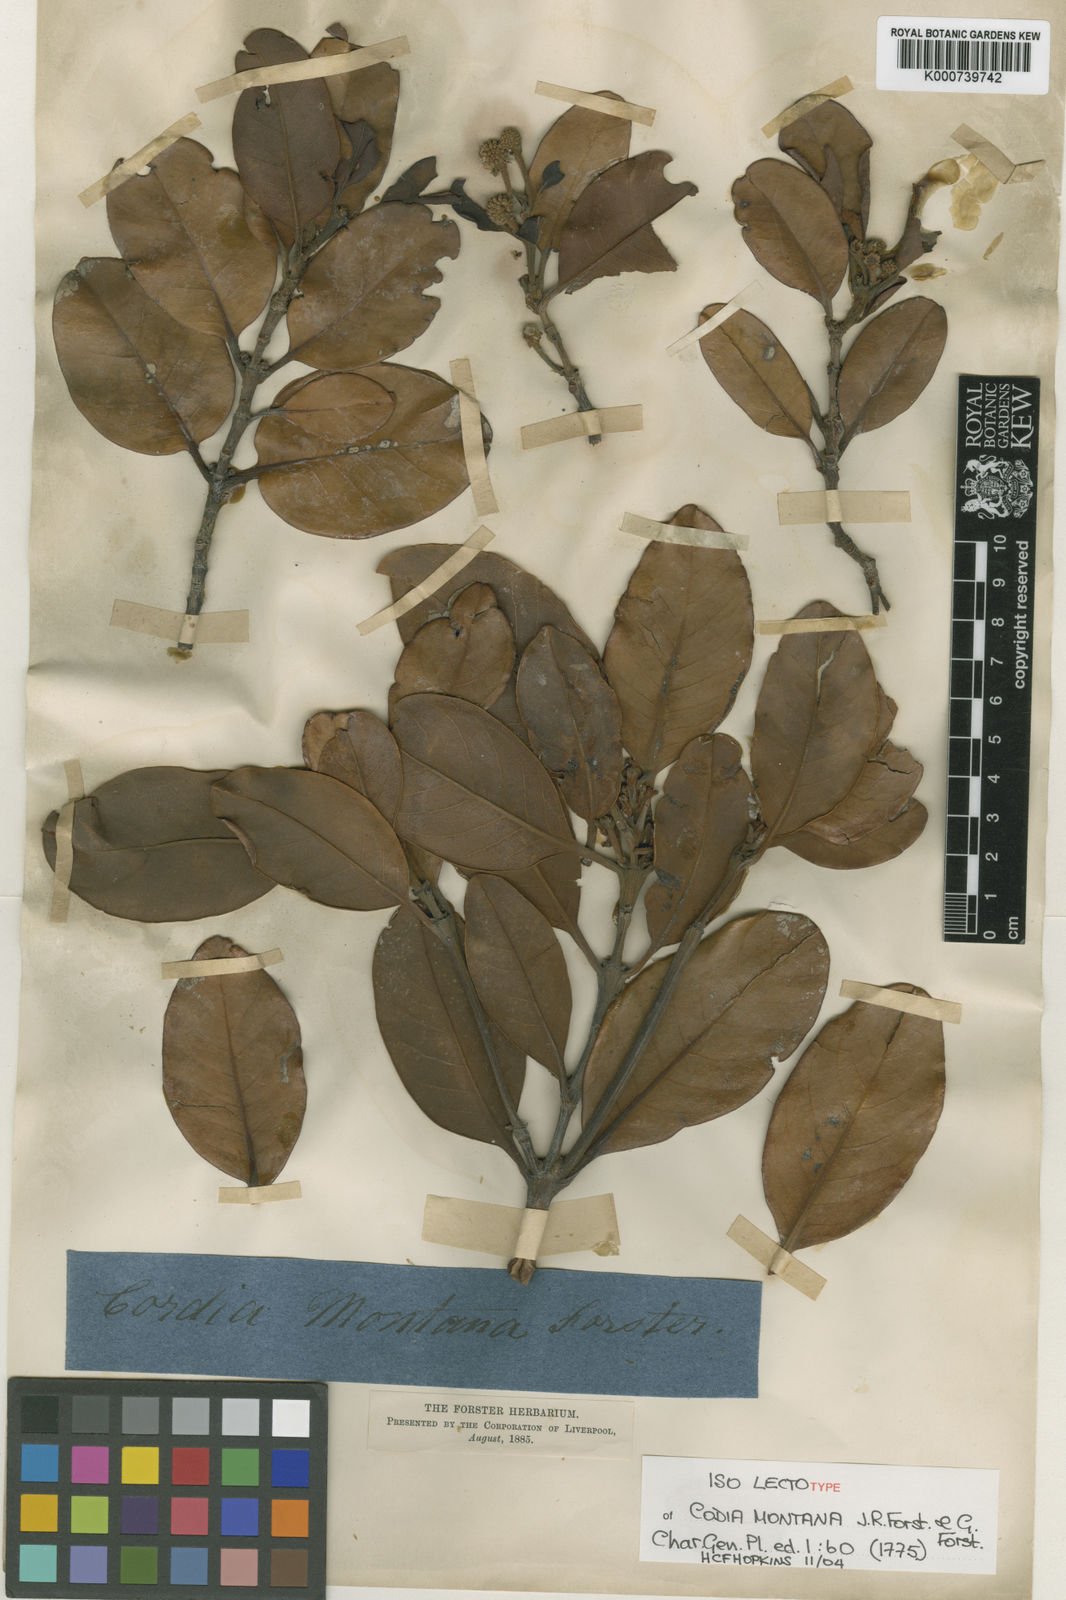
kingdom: Plantae
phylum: Tracheophyta
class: Magnoliopsida
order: Oxalidales
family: Cunoniaceae
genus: Codia
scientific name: Codia montana
